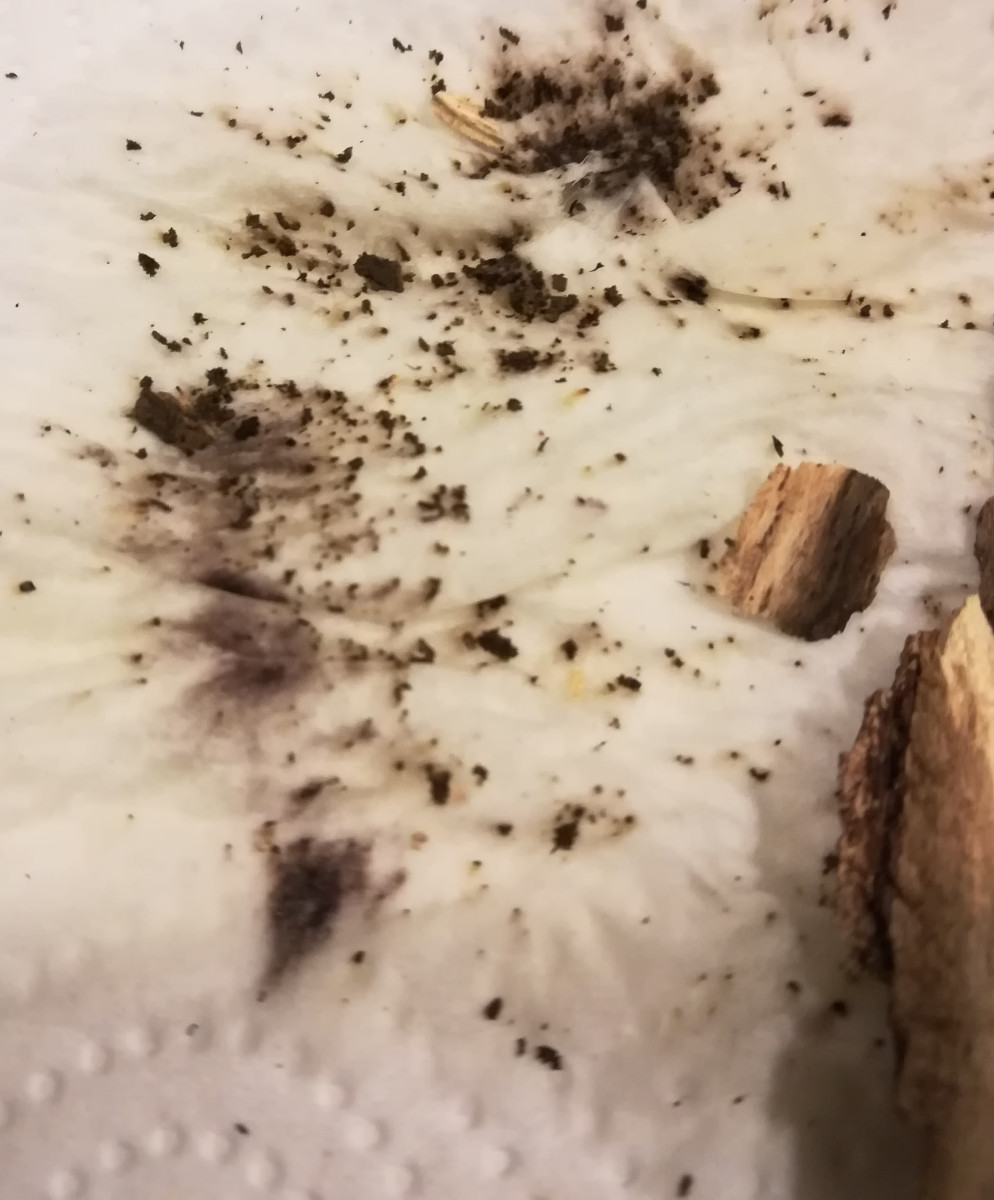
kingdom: Fungi
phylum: Ascomycota
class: Sordariomycetes
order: Xylariales
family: Hypoxylaceae
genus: Hypoxylon
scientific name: Hypoxylon macrocarpum
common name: skorpe-kulbær
